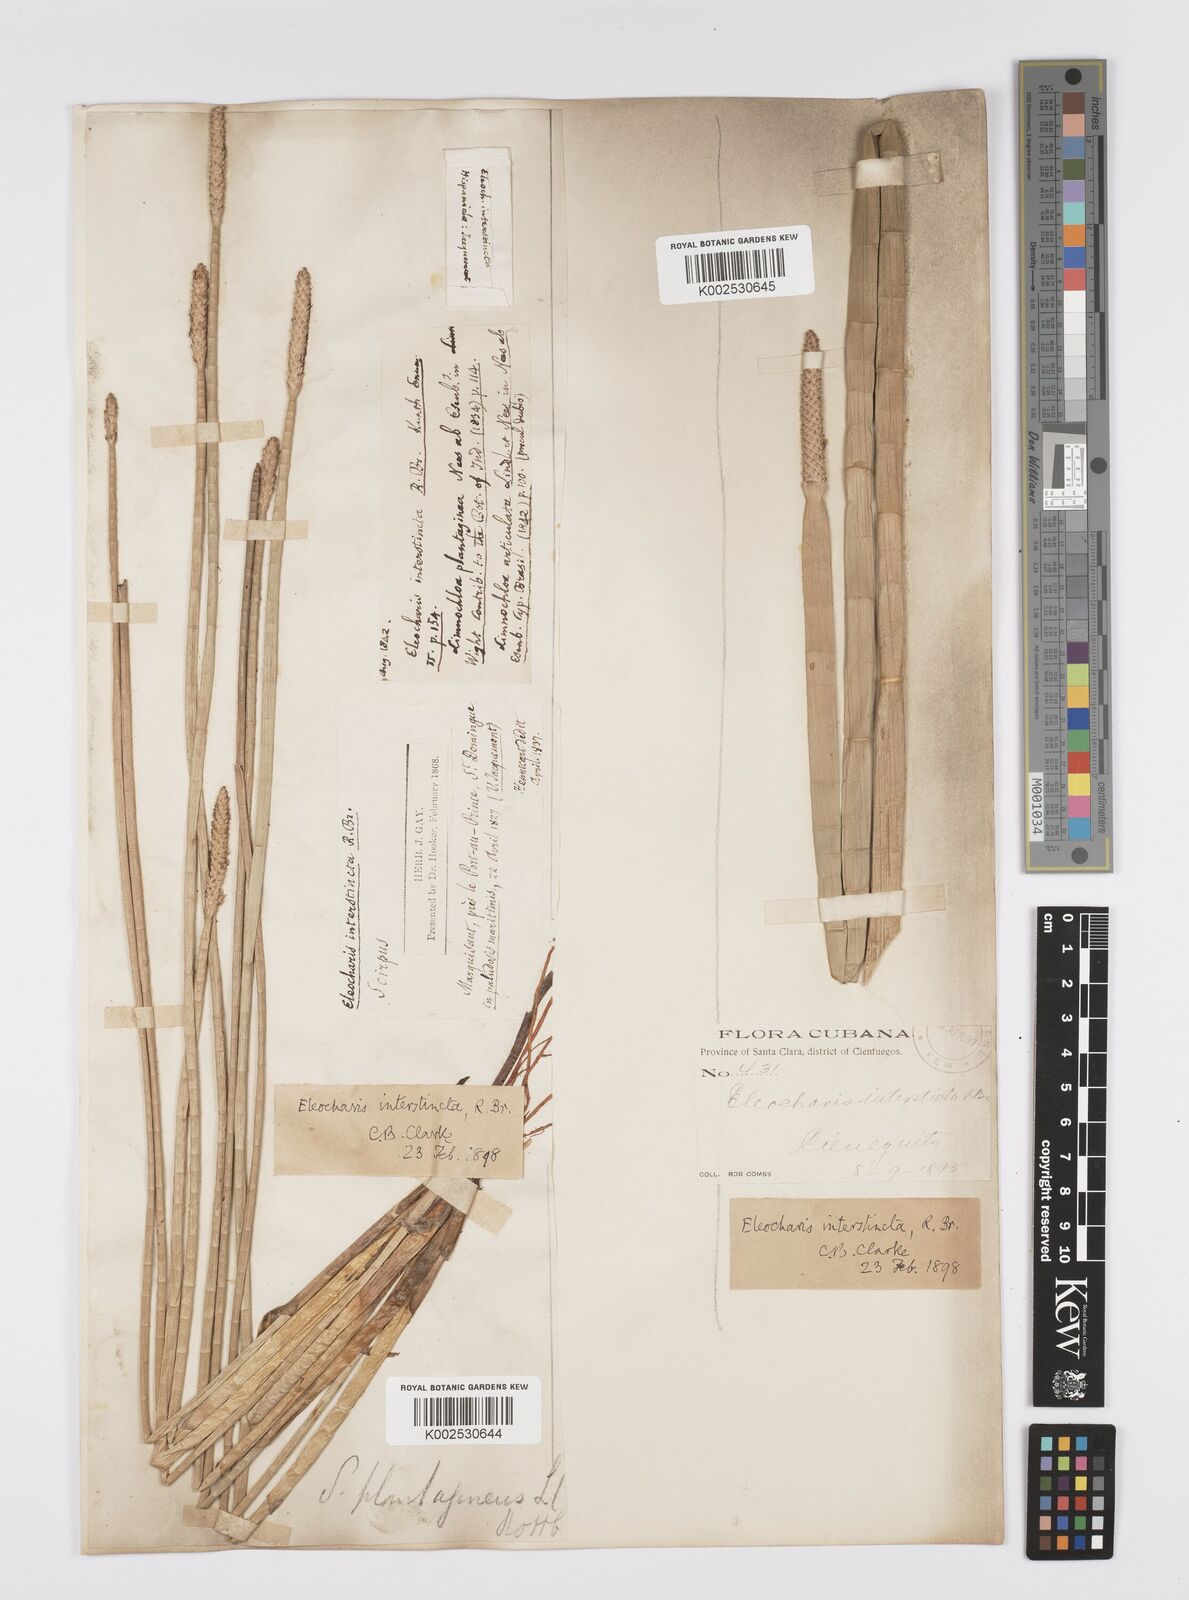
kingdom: Plantae
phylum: Tracheophyta
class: Liliopsida
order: Poales
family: Cyperaceae
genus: Eleocharis
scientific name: Eleocharis interstincta
